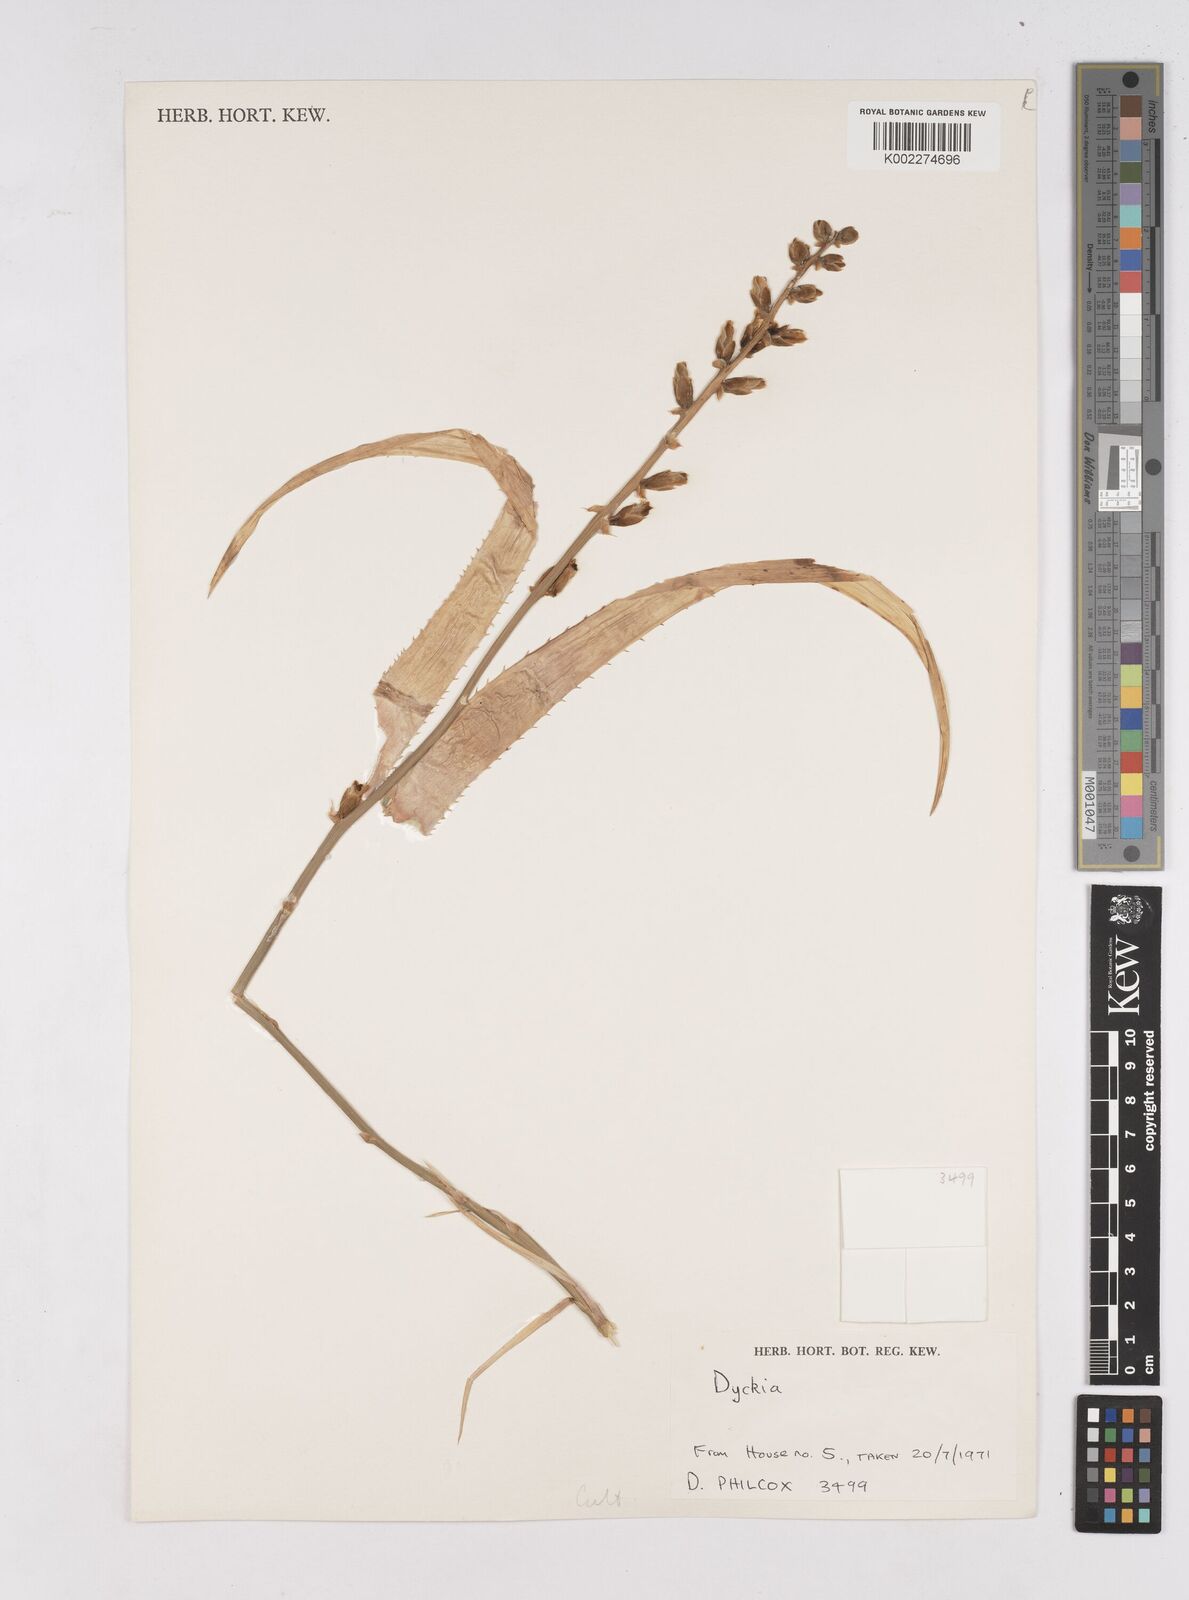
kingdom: Plantae
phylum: Tracheophyta
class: Liliopsida
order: Poales
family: Bromeliaceae
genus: Dyckia
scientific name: Dyckia encholirioides
